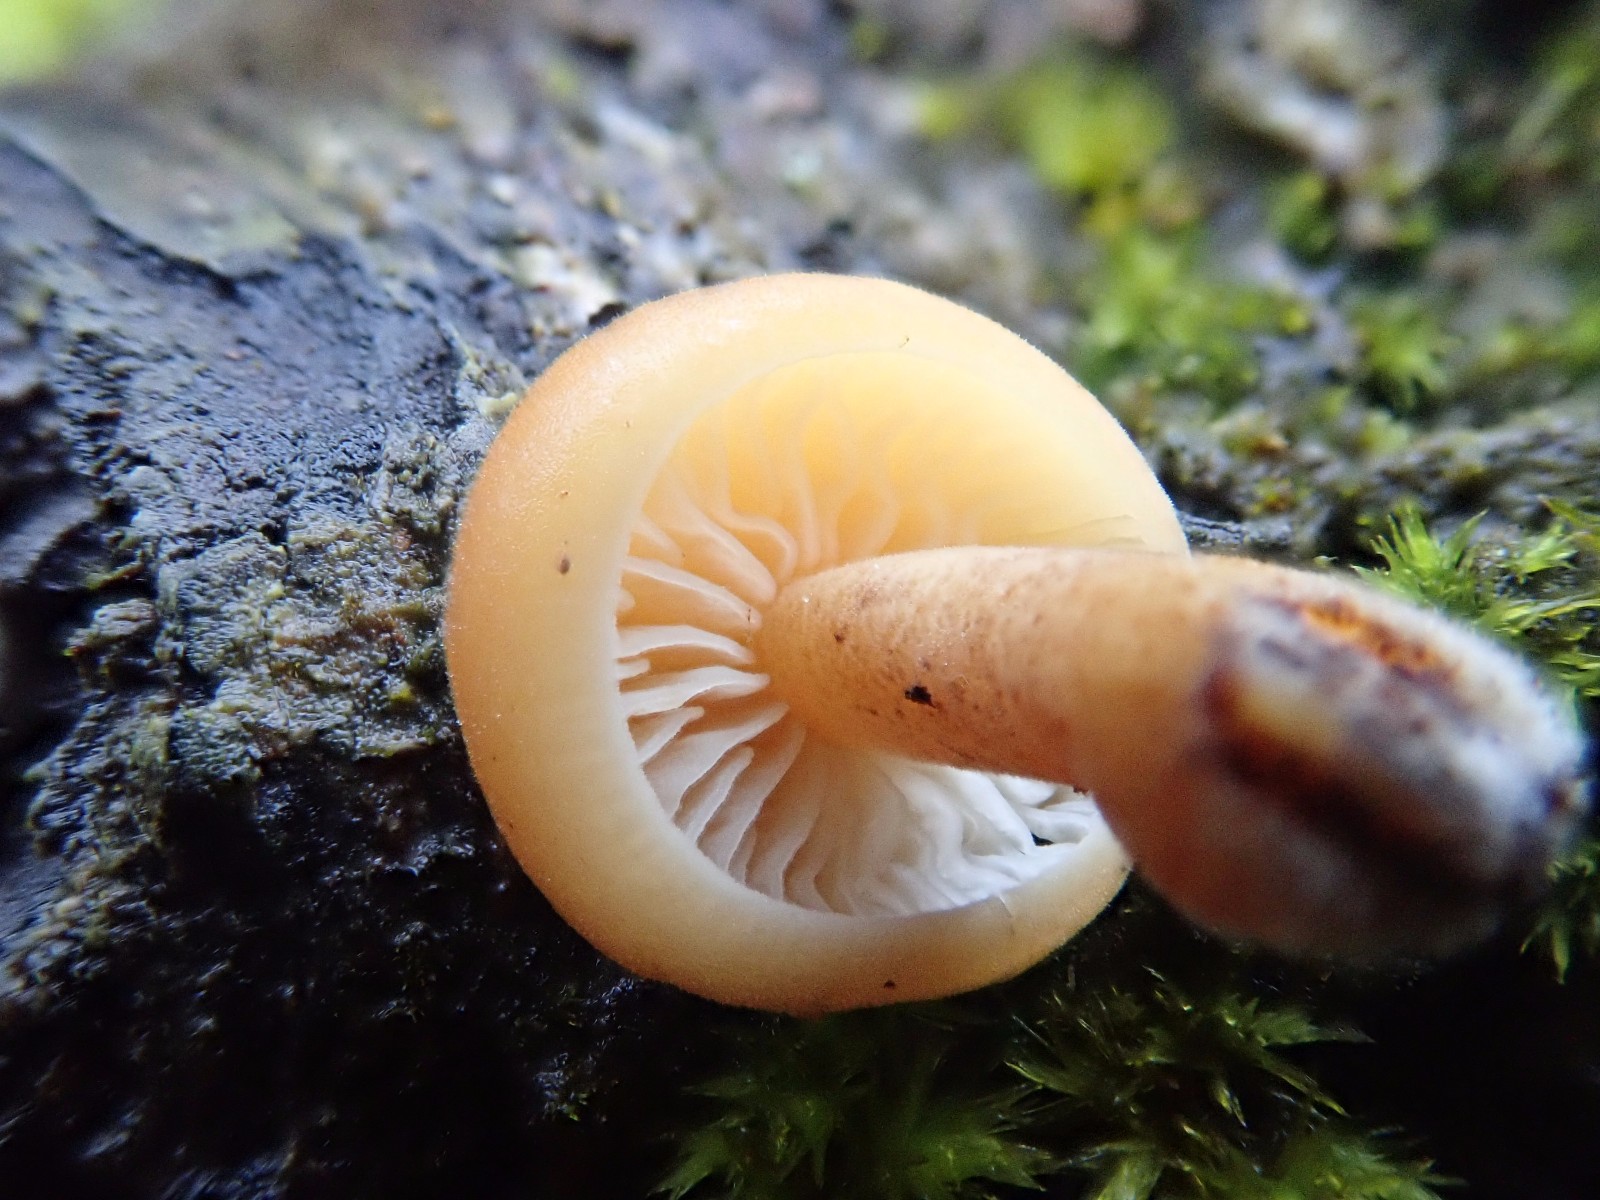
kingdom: Fungi
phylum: Basidiomycota
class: Agaricomycetes
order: Agaricales
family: Physalacriaceae
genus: Flammulina
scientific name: Flammulina velutipes
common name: gul fløjlsfod
